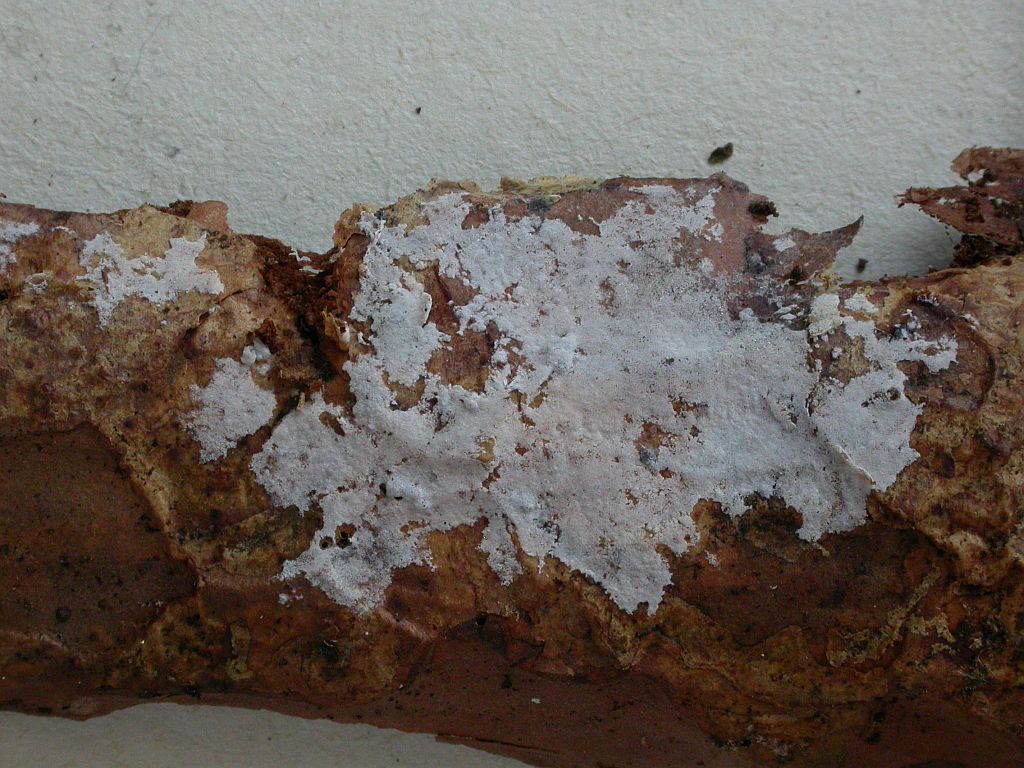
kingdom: Fungi
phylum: Basidiomycota
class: Agaricomycetes
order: Atheliales
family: Atheliaceae
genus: Athelia
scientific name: Athelia decipiens
